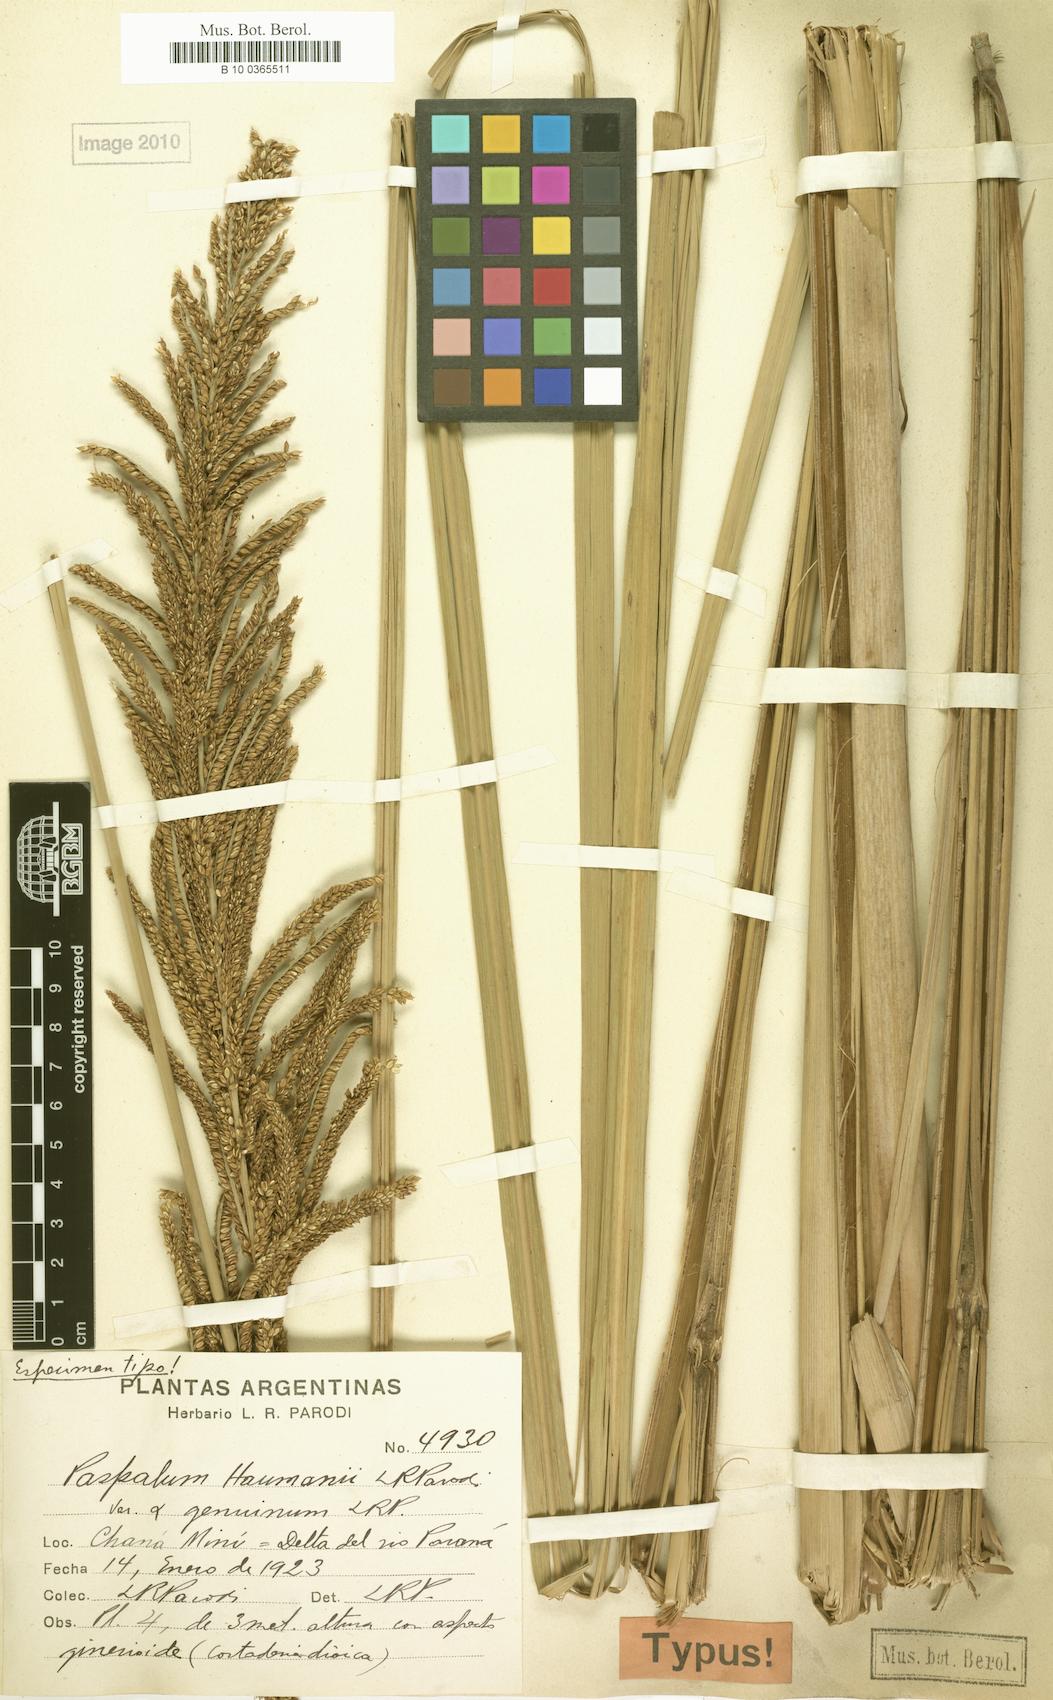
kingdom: Plantae
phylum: Tracheophyta
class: Liliopsida
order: Poales
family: Poaceae
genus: Paspalum
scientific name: Paspalum haumanii
